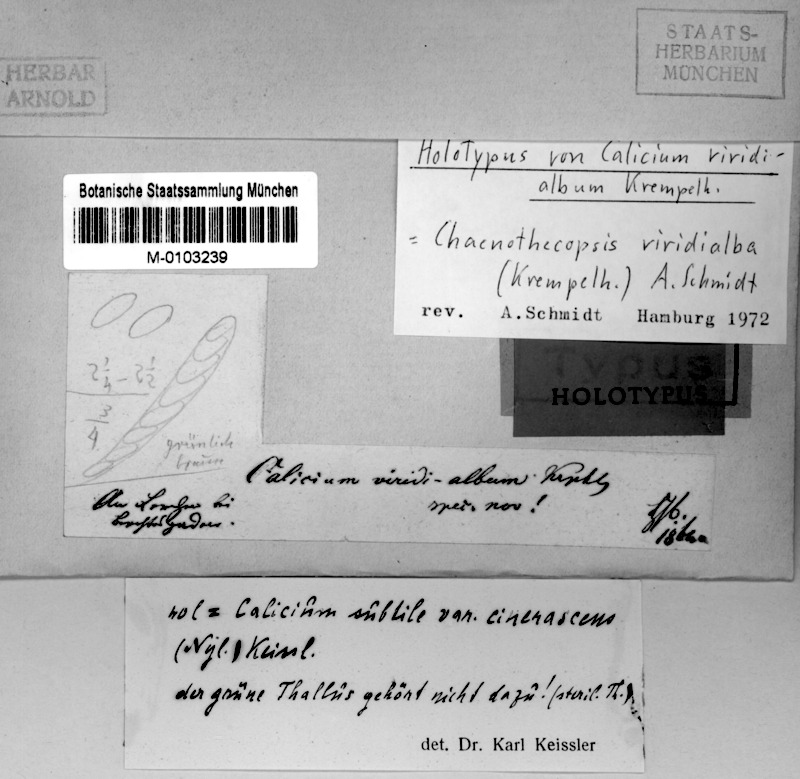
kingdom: Fungi
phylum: Ascomycota
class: Eurotiomycetes
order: Mycocaliciales
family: Mycocaliciaceae
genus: Chaenothecopsis
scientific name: Chaenothecopsis viridialba
